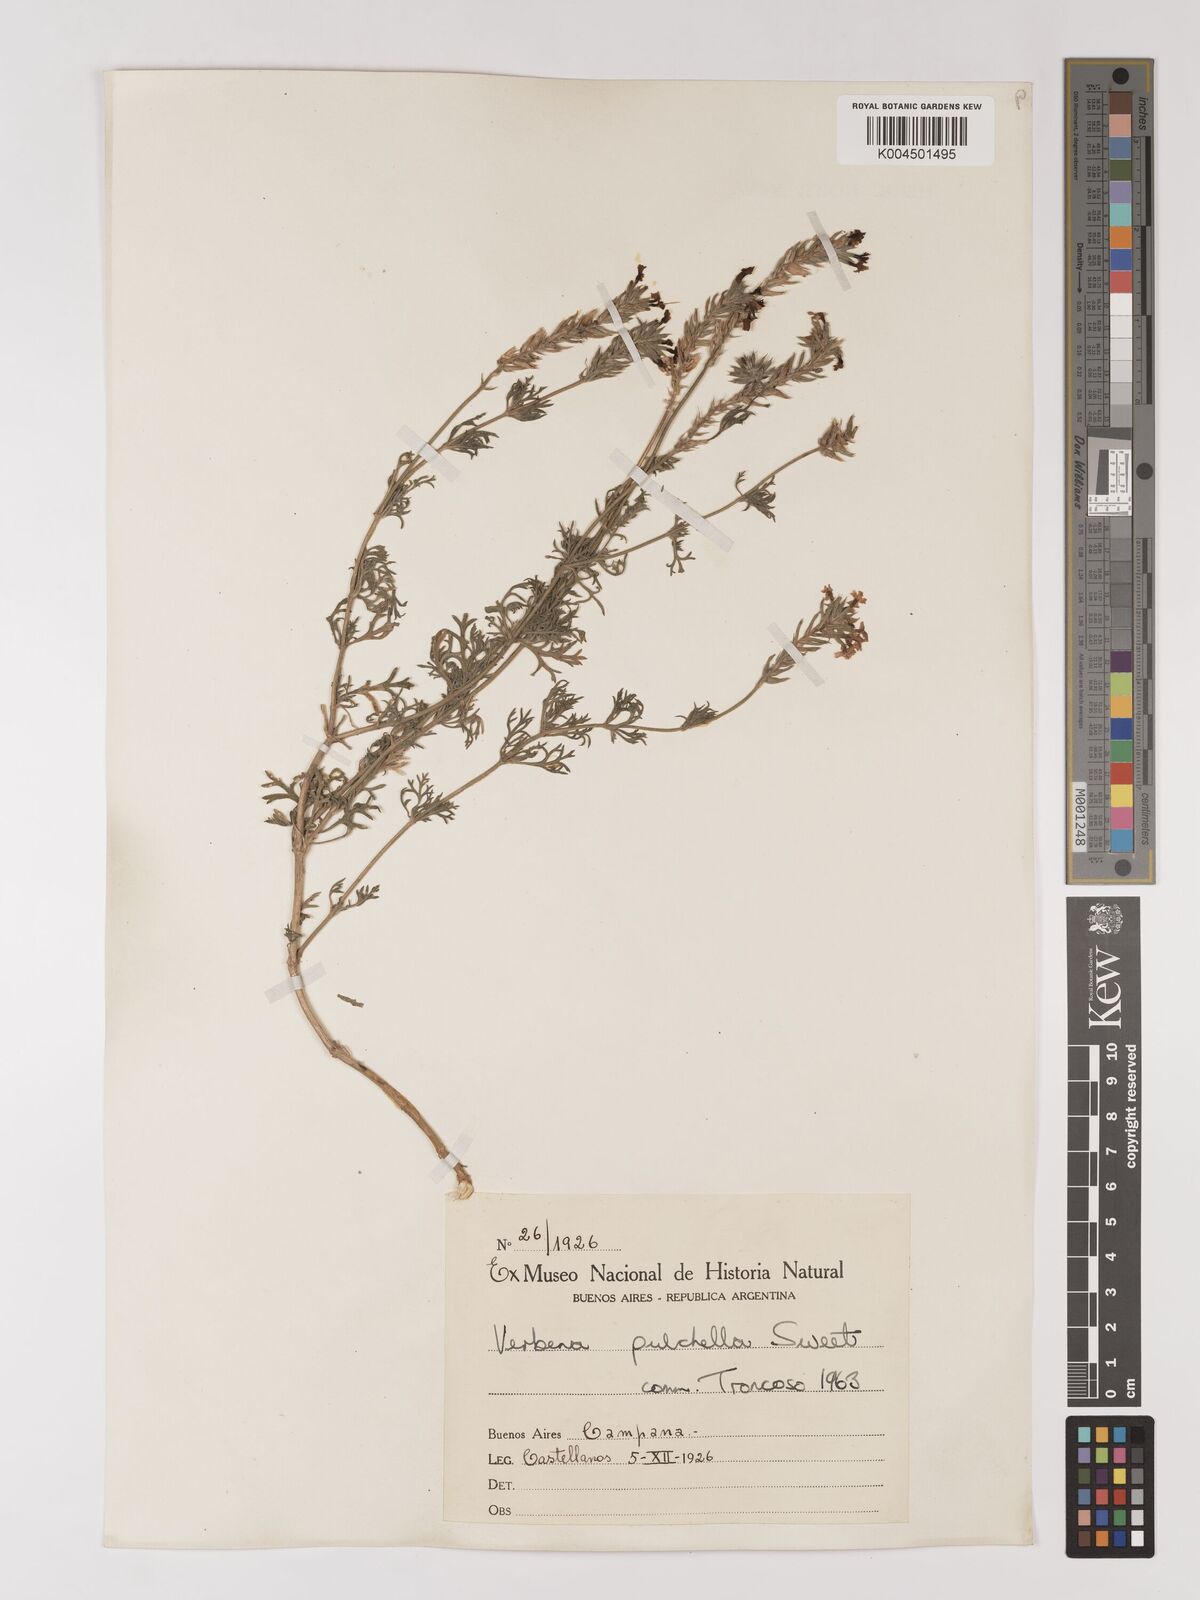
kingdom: Plantae
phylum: Tracheophyta
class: Magnoliopsida
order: Lamiales
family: Verbenaceae
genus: Verbena
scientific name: Verbena tenera
